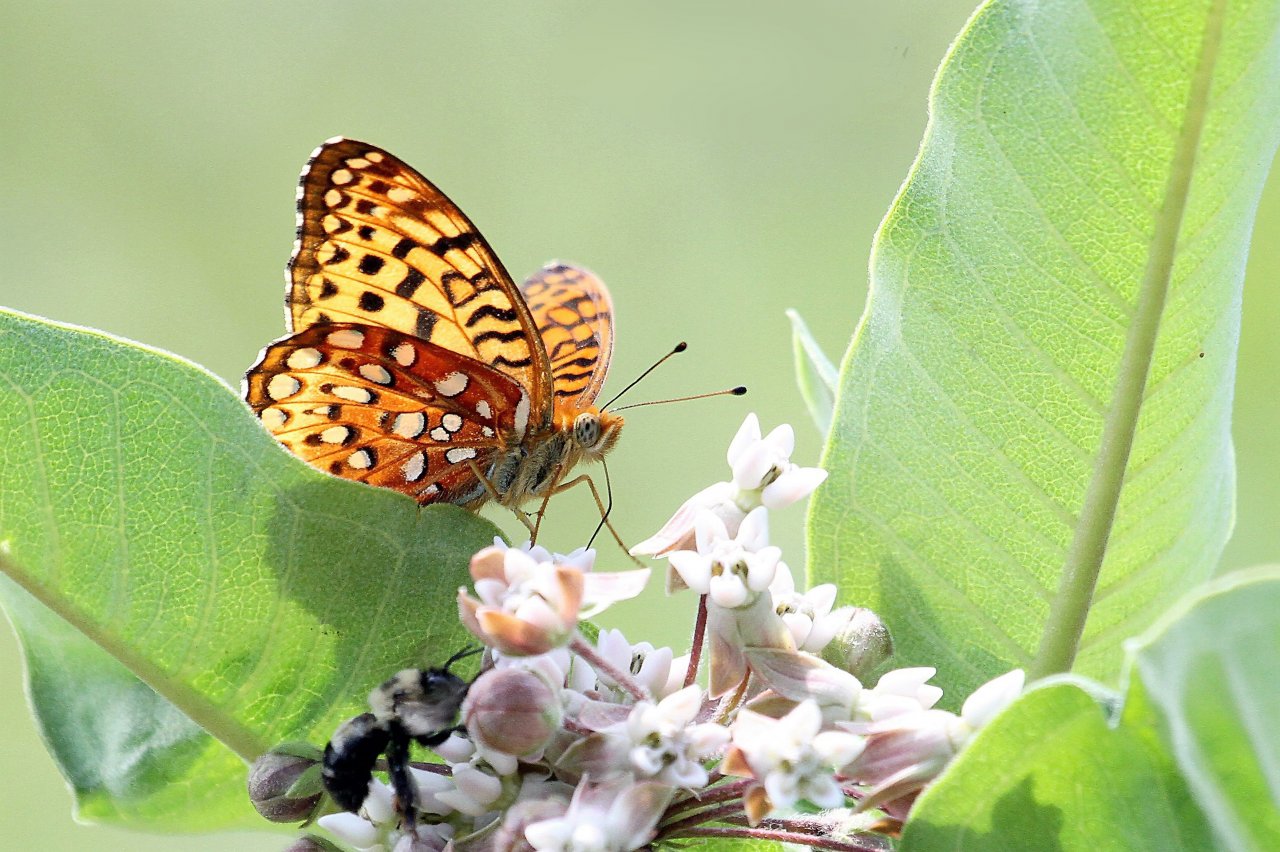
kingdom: Animalia
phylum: Arthropoda
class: Insecta
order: Lepidoptera
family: Nymphalidae
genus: Speyeria
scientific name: Speyeria atlantis
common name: Atlantis Fritillary
